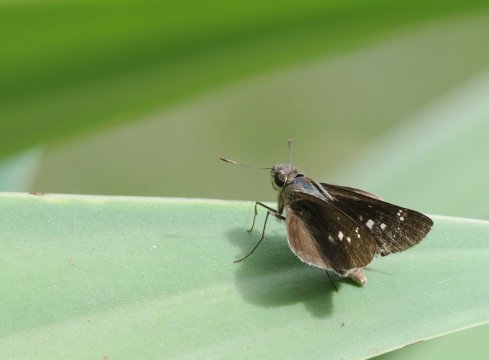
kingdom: Animalia
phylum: Arthropoda
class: Insecta
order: Lepidoptera
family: Hesperiidae
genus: Baoris
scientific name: Baoris fatuellus
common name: Long-horned Swift
